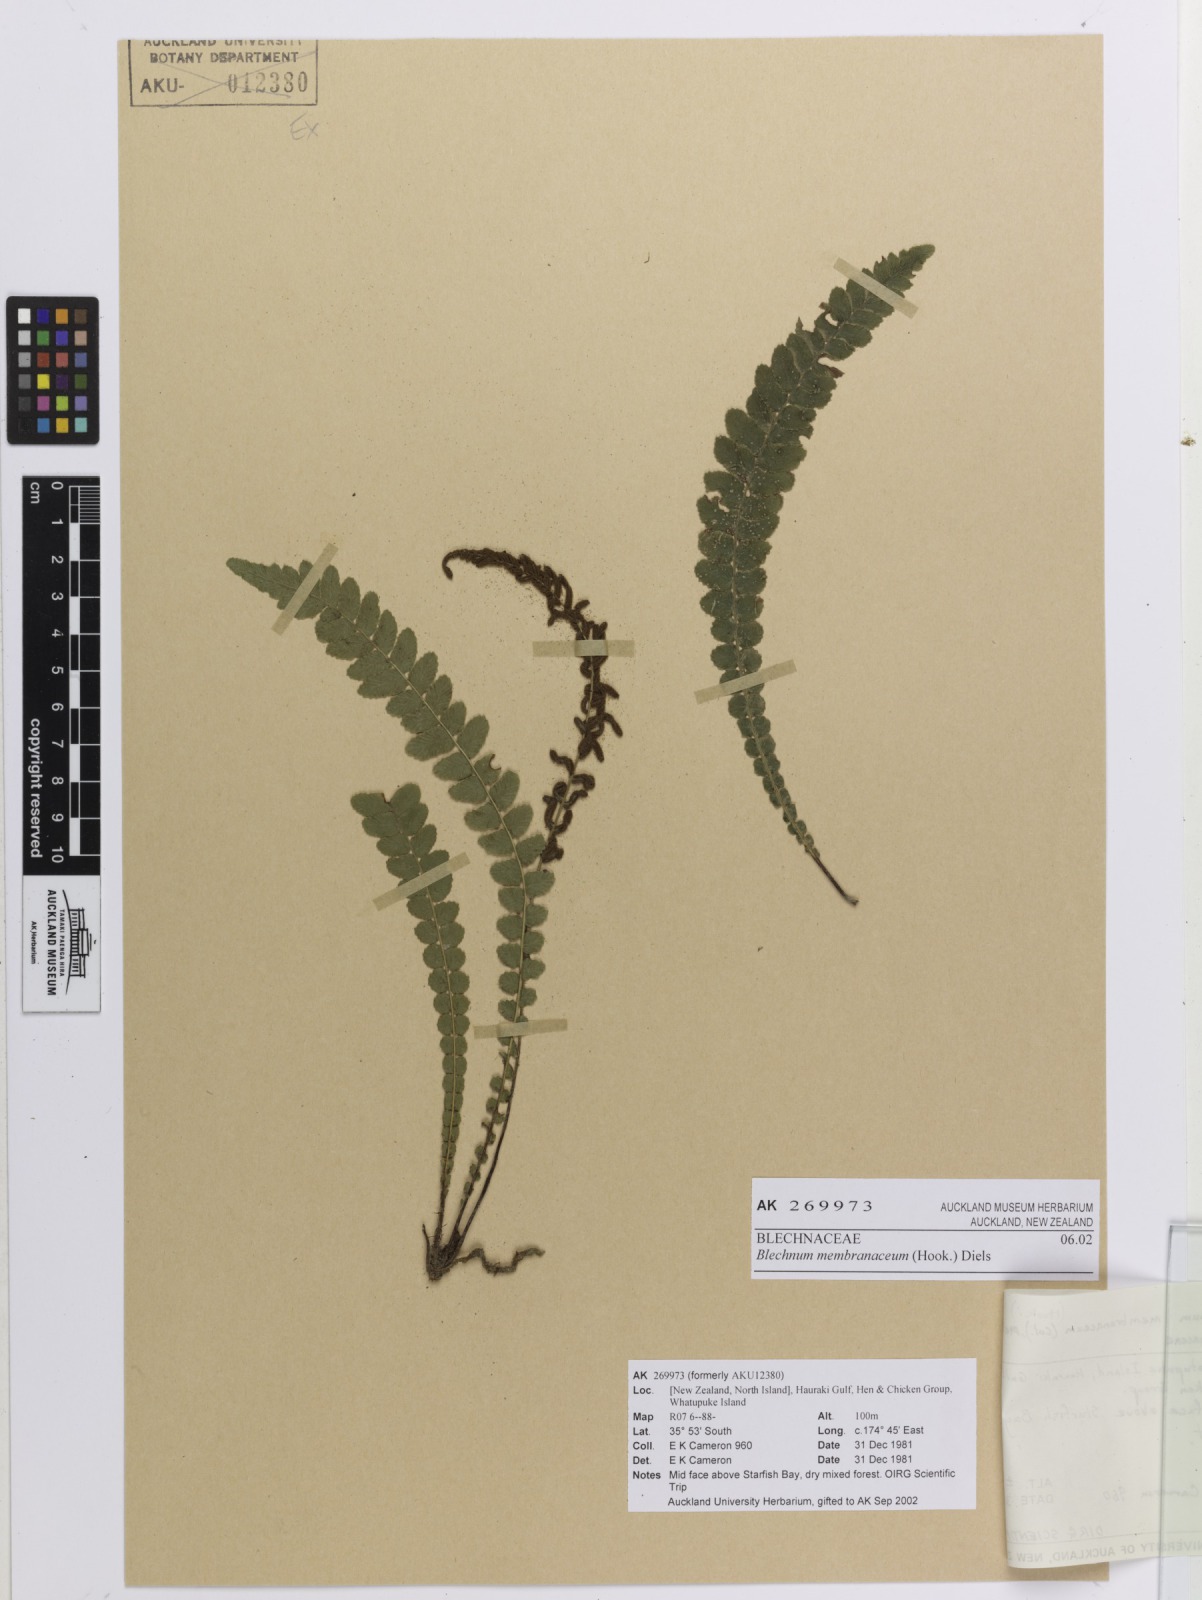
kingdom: Plantae
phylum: Tracheophyta
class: Polypodiopsida
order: Polypodiales
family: Blechnaceae
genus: Austroblechnum
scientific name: Austroblechnum membranaceum
